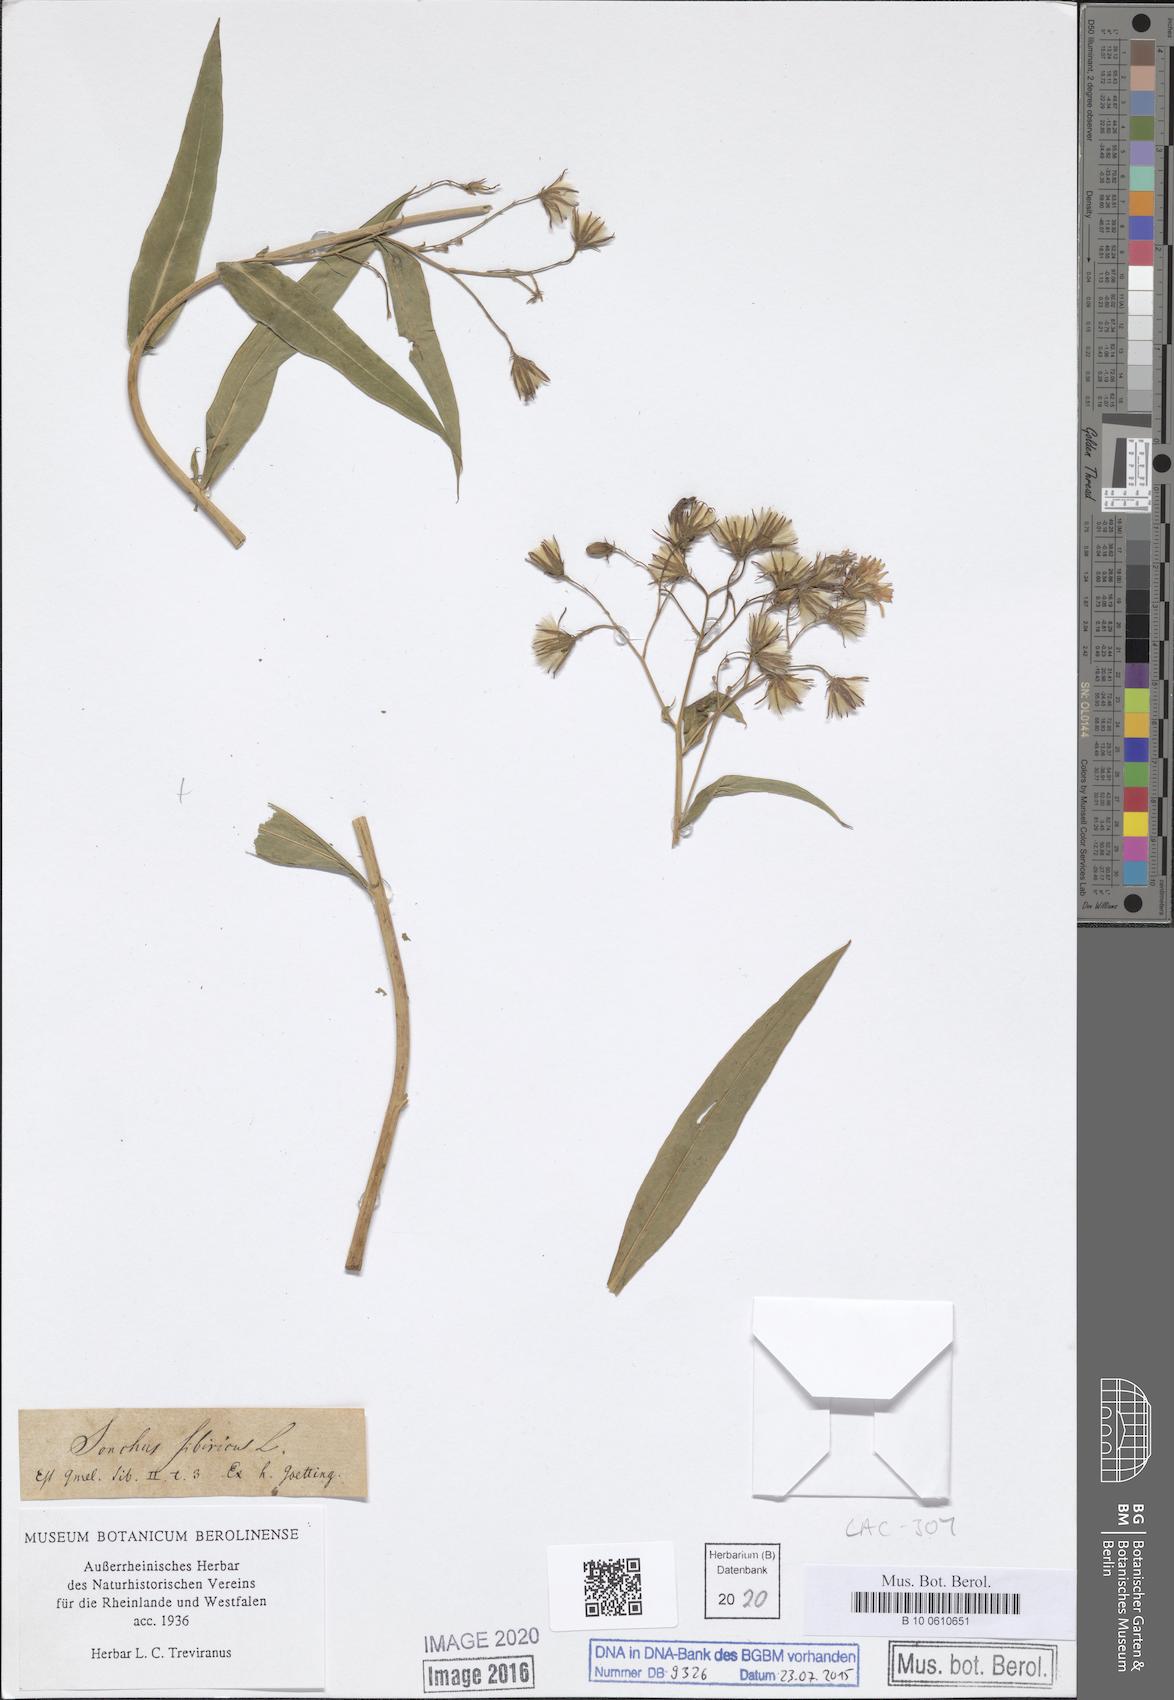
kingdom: Plantae
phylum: Tracheophyta
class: Magnoliopsida
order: Asterales
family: Asteraceae
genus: Lactuca
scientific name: Lactuca sibirica
